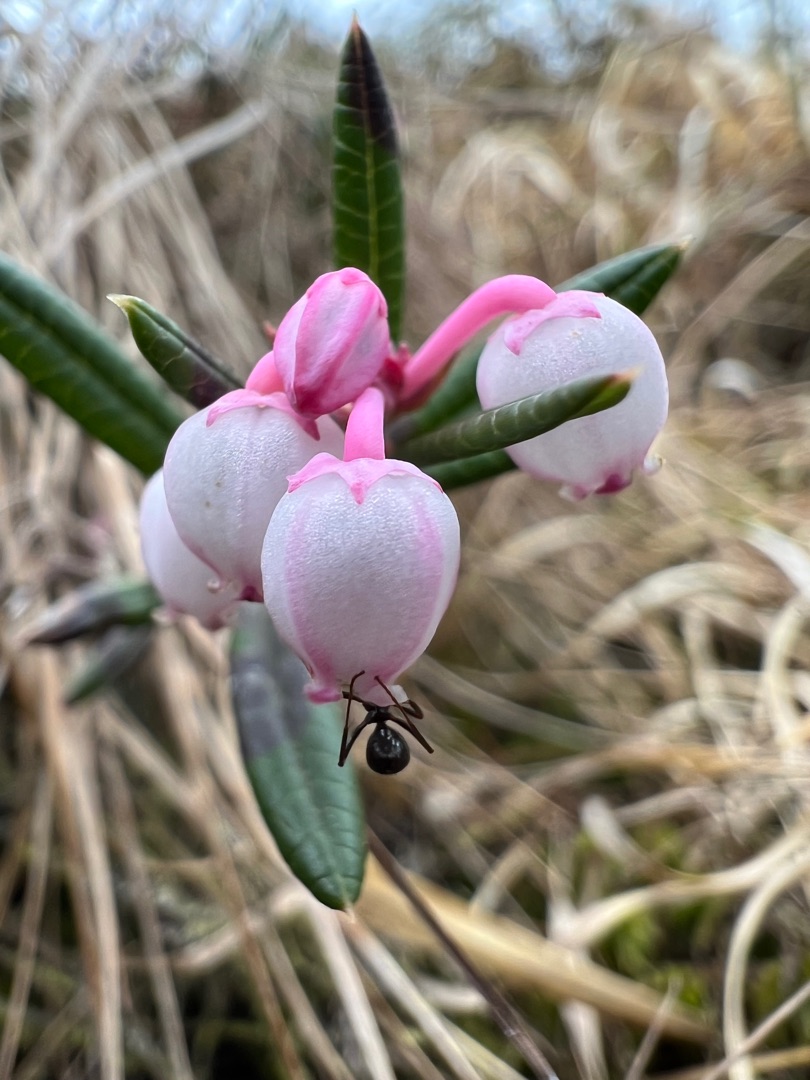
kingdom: Plantae
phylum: Tracheophyta
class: Magnoliopsida
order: Ericales
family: Ericaceae
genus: Andromeda
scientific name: Andromeda polifolia
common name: Rosmarinlyng
